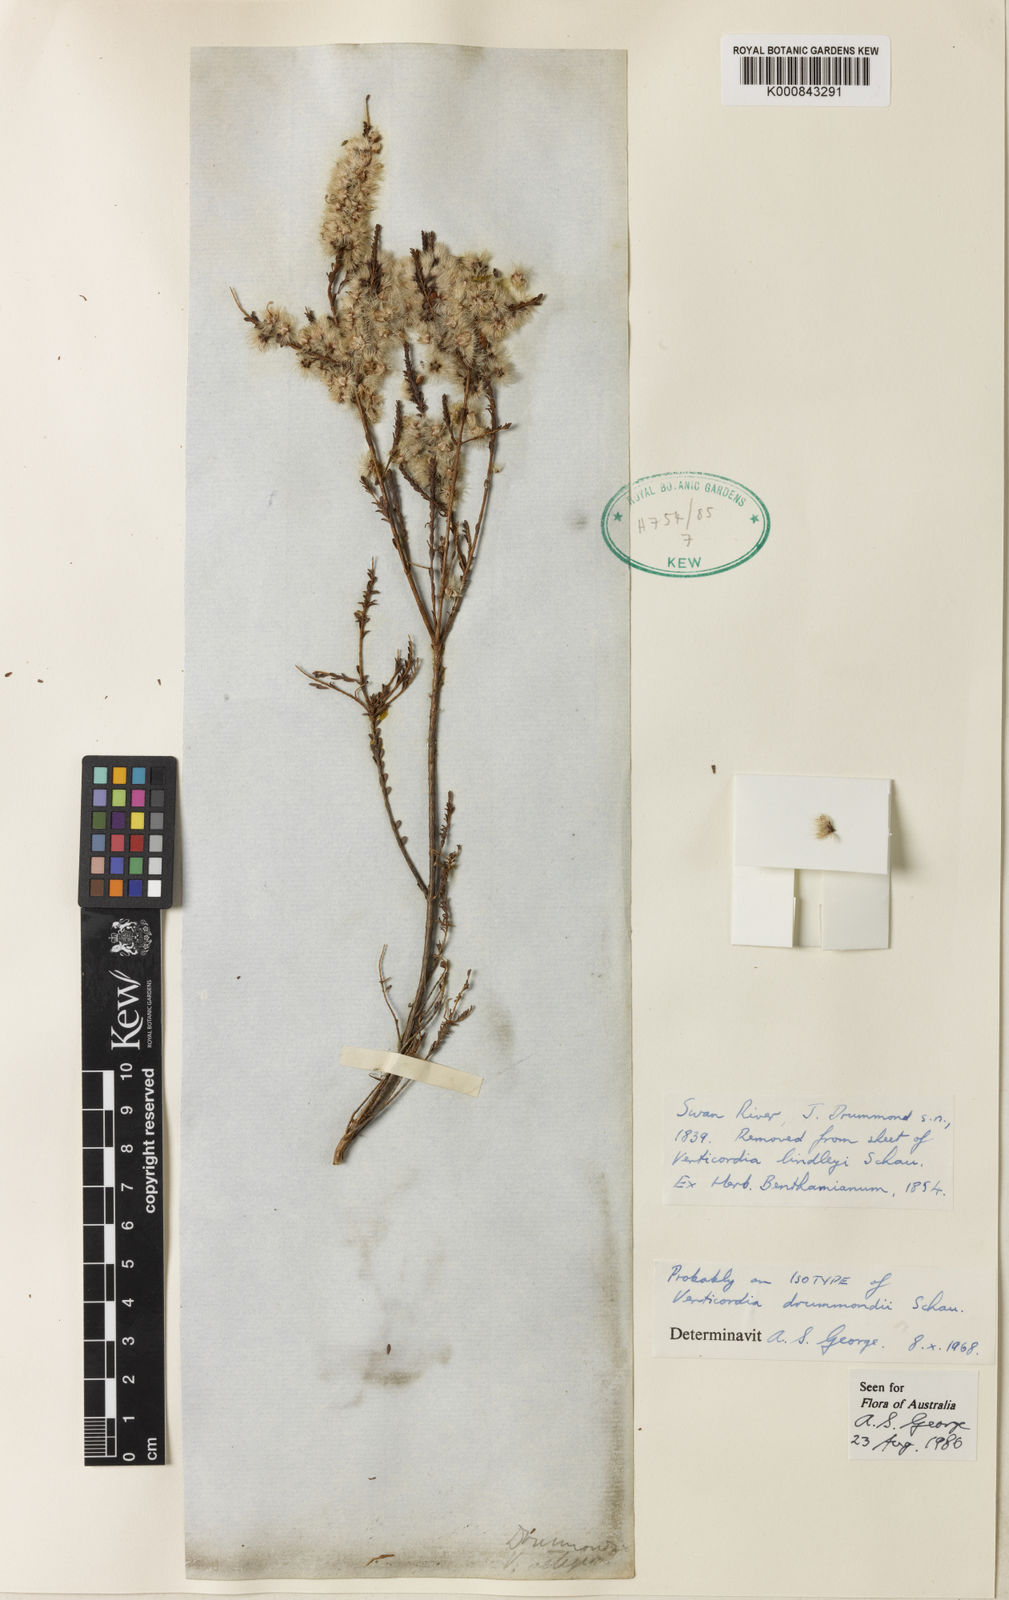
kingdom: Plantae
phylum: Tracheophyta
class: Magnoliopsida
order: Myrtales
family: Myrtaceae
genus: Verticordia
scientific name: Verticordia drummondii
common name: Drummond's feather-flower
